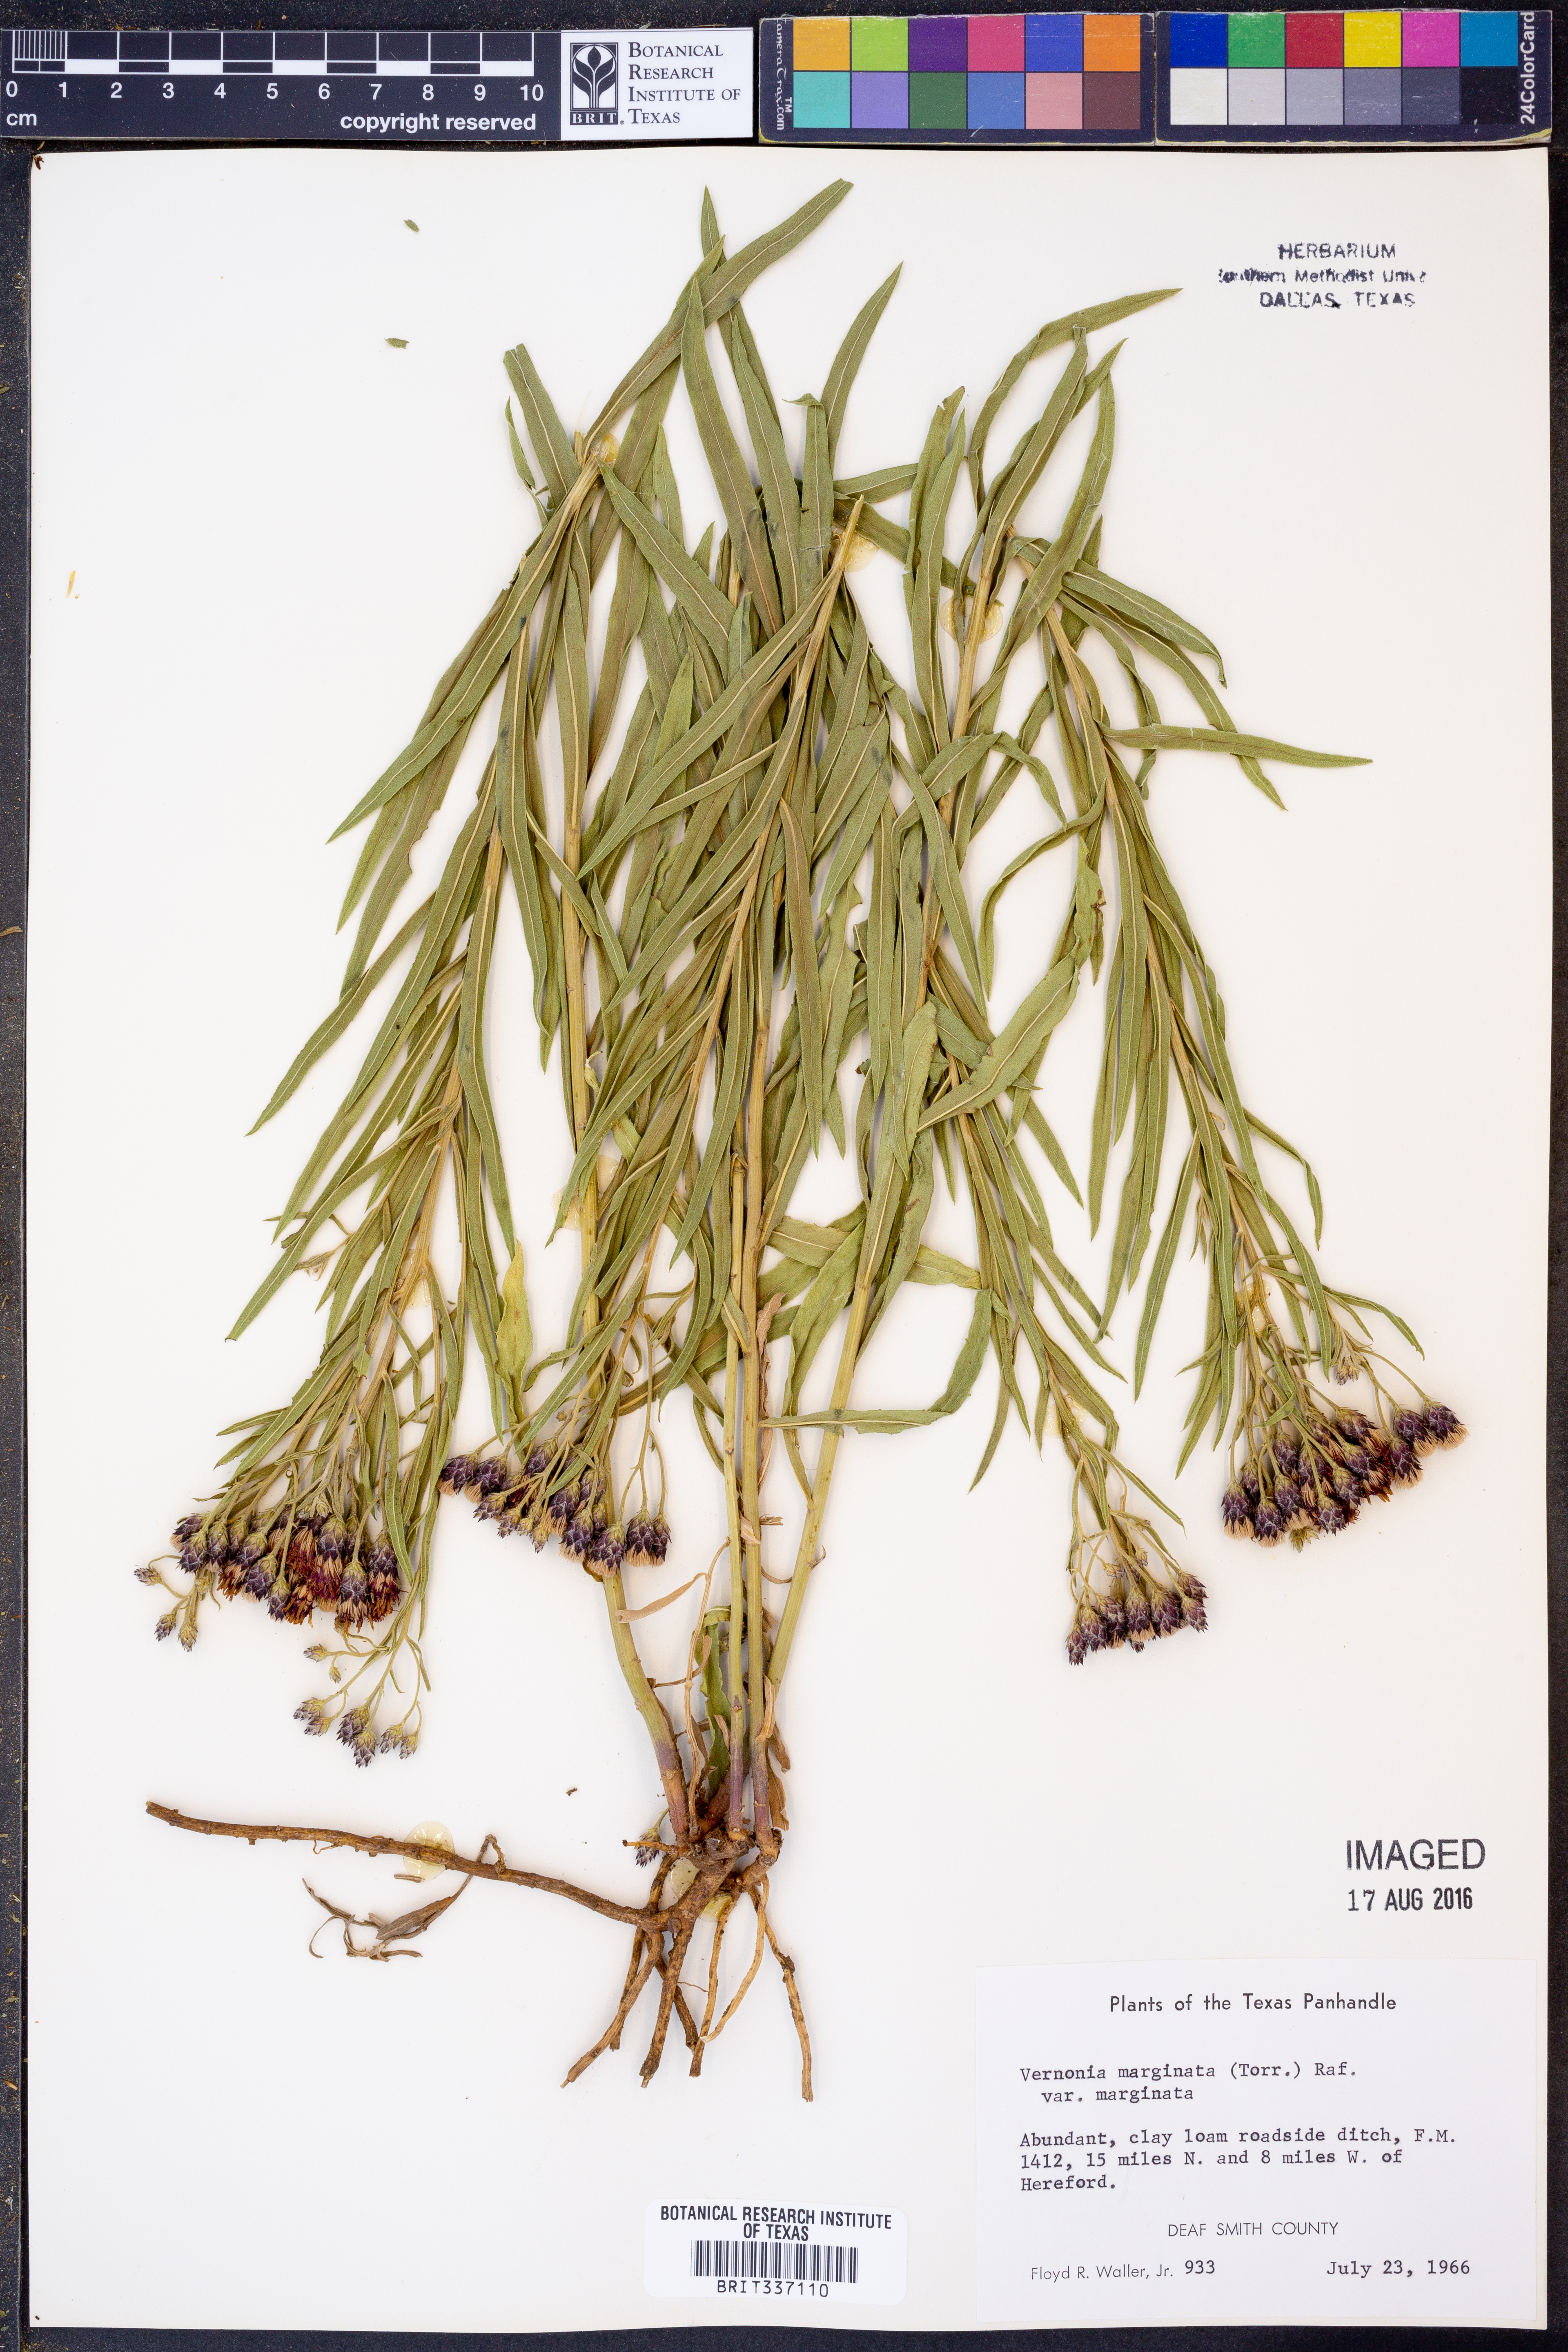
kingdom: Plantae
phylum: Tracheophyta
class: Magnoliopsida
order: Asterales
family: Asteraceae
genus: Vernonia
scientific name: Vernonia marginata
